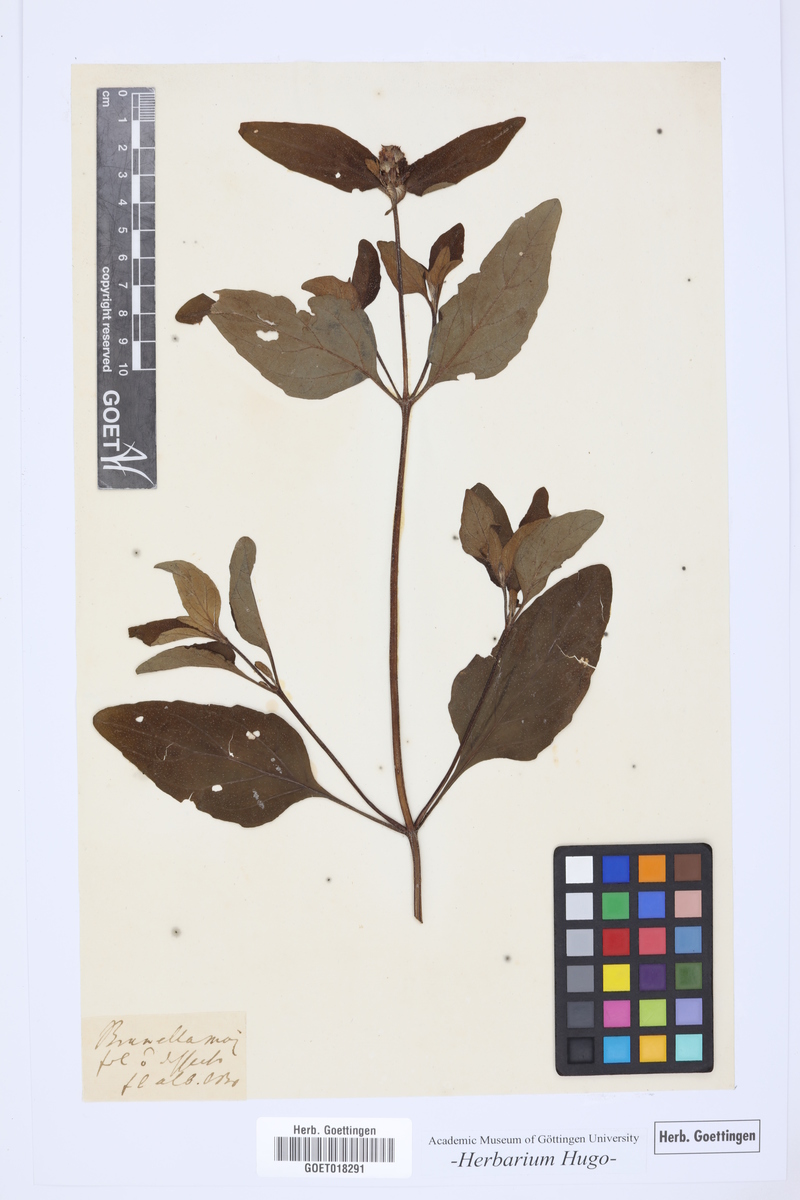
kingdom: Plantae
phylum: Tracheophyta
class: Magnoliopsida
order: Lamiales
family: Lamiaceae
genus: Brunella
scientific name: Brunella
